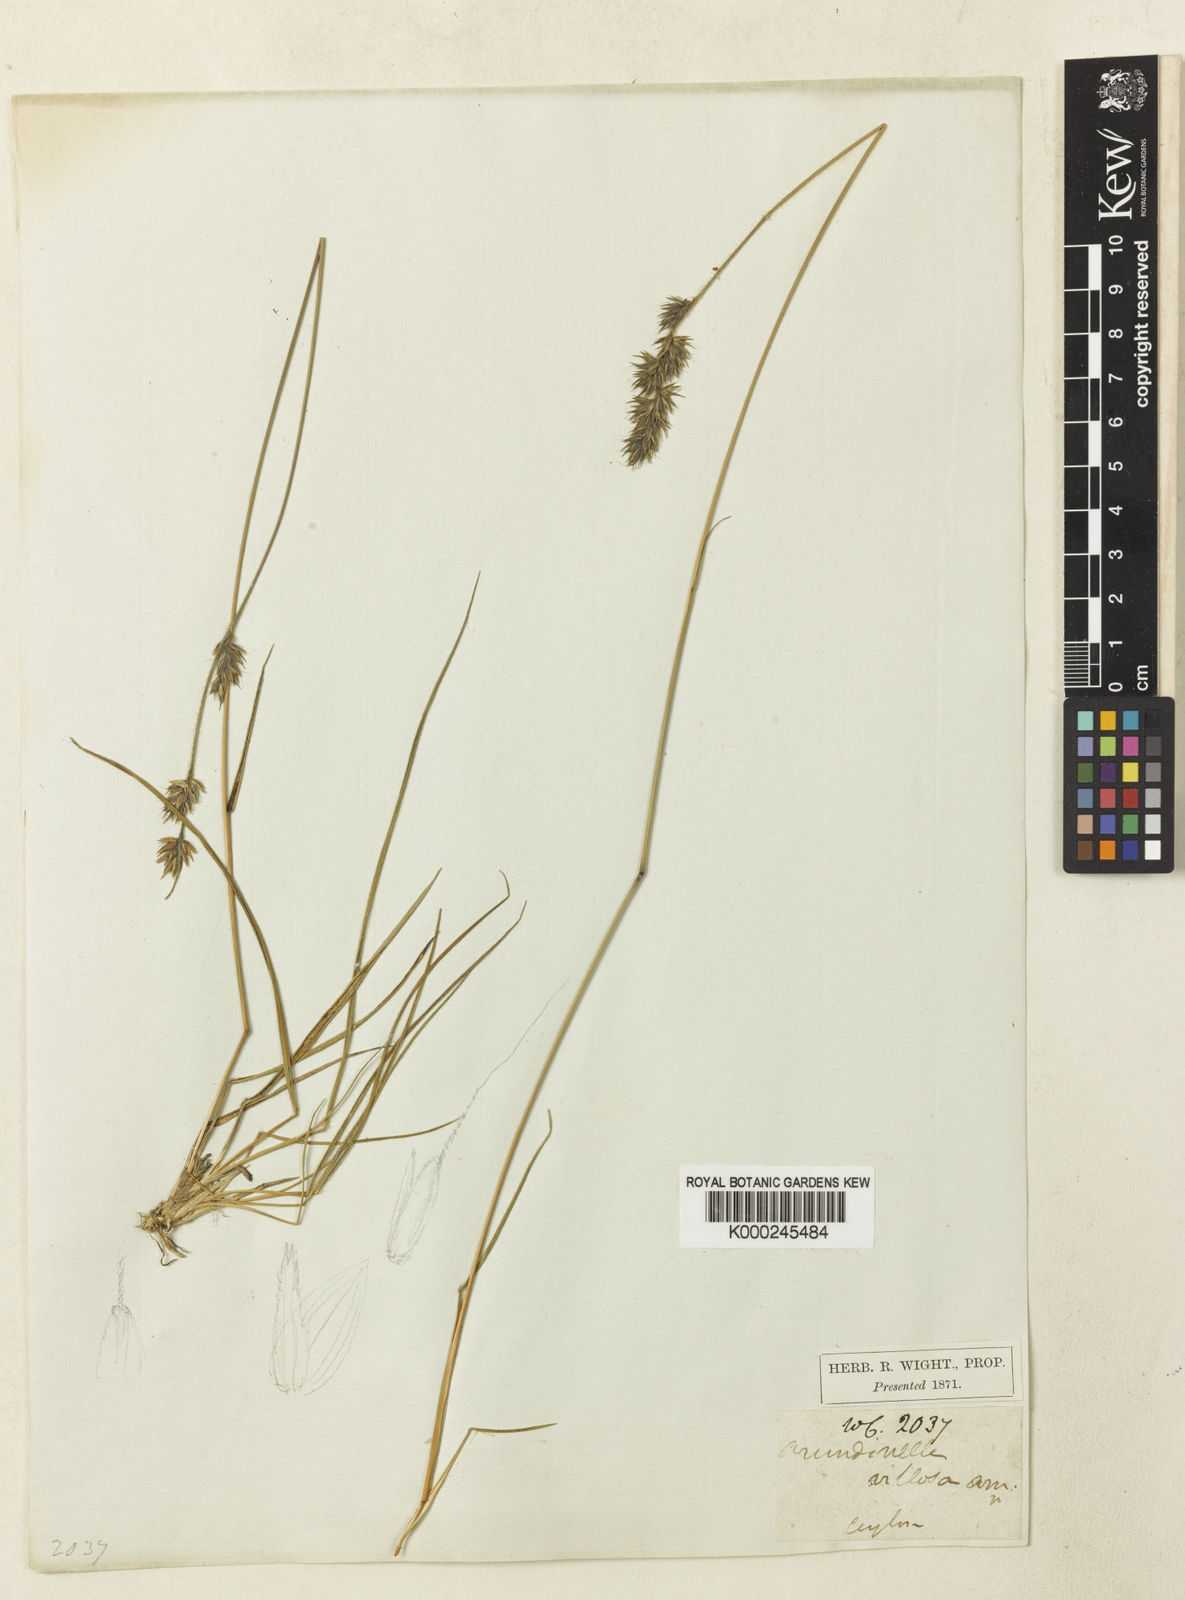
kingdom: Plantae
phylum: Tracheophyta
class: Liliopsida
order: Poales
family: Poaceae
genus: Arundinella
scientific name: Arundinella villosa
